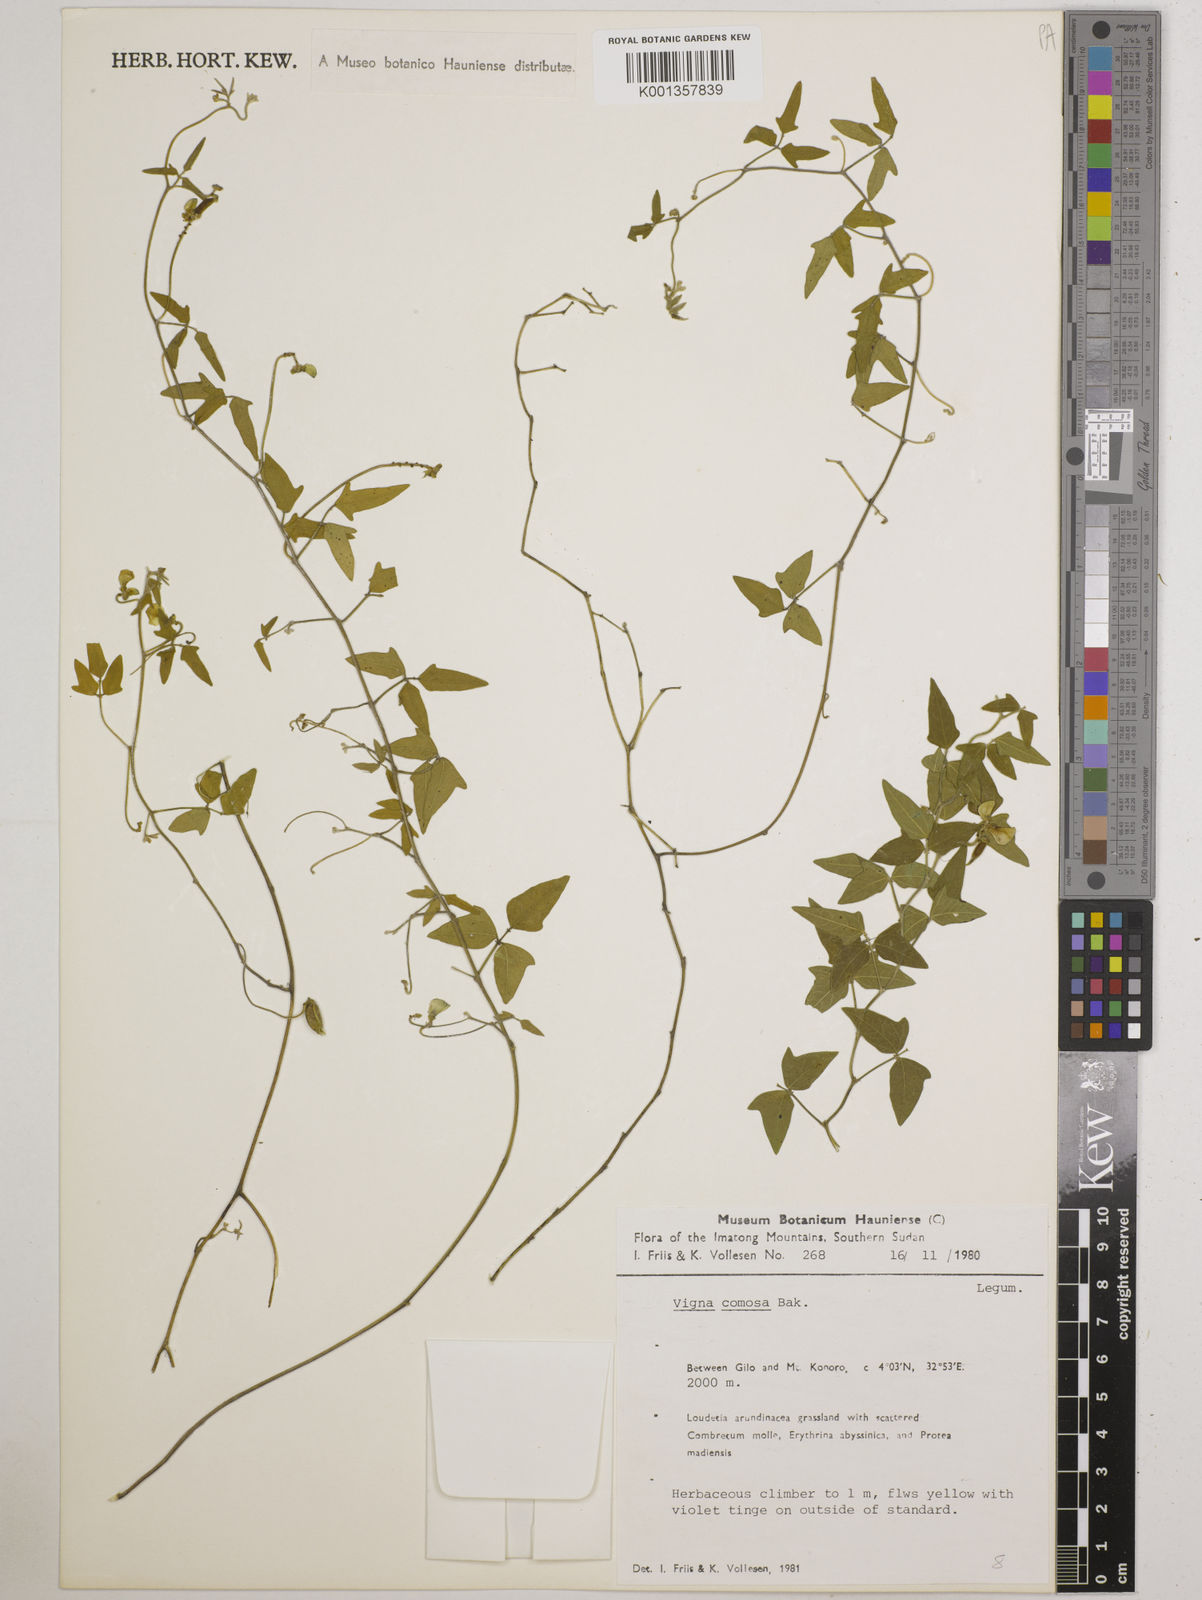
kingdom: Plantae
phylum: Tracheophyta
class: Magnoliopsida
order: Fabales
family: Fabaceae
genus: Vigna
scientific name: Vigna comosa
